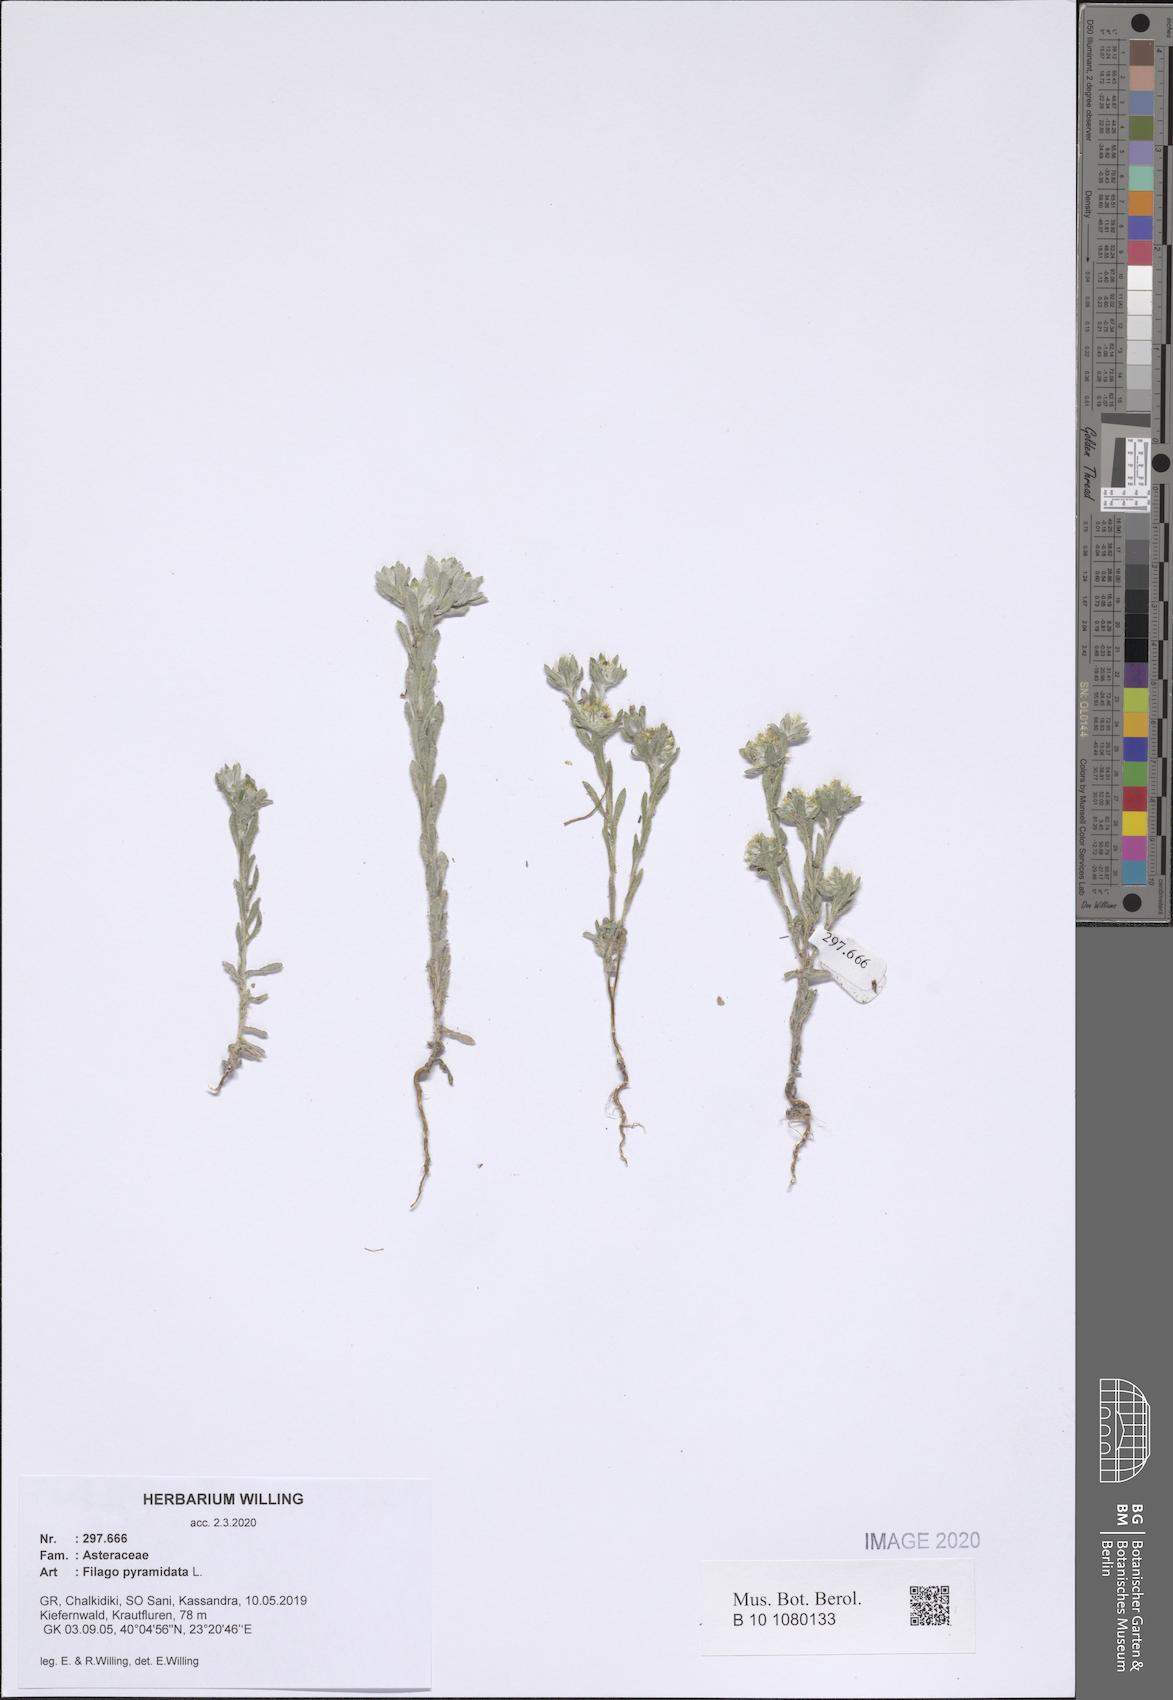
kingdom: Plantae
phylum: Tracheophyta
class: Magnoliopsida
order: Asterales
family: Asteraceae
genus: Filago
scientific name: Filago pyramidata
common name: Broad-leaved cudweed
